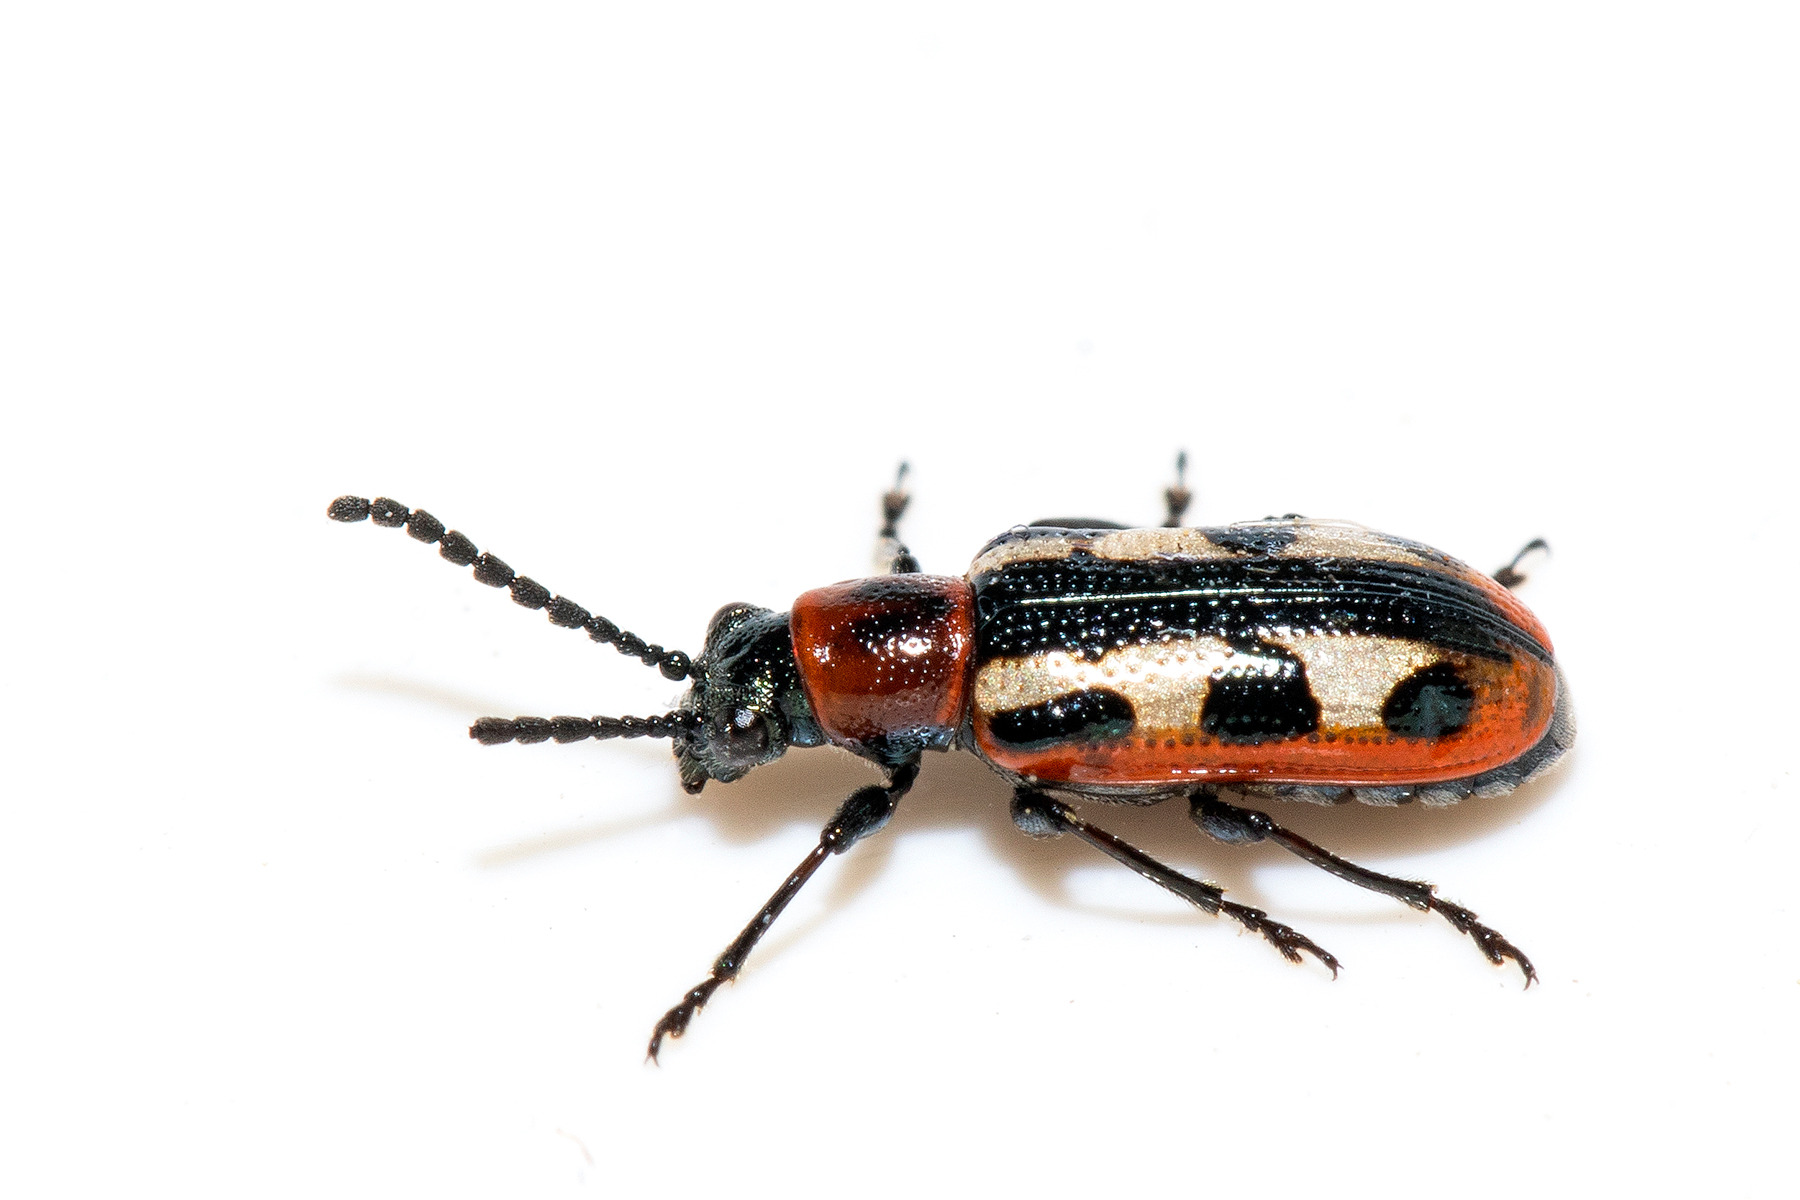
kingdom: Animalia
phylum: Arthropoda
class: Insecta
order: Coleoptera
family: Chrysomelidae
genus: Crioceris
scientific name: Crioceris asparagi
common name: Gulplettet aspargesbille
